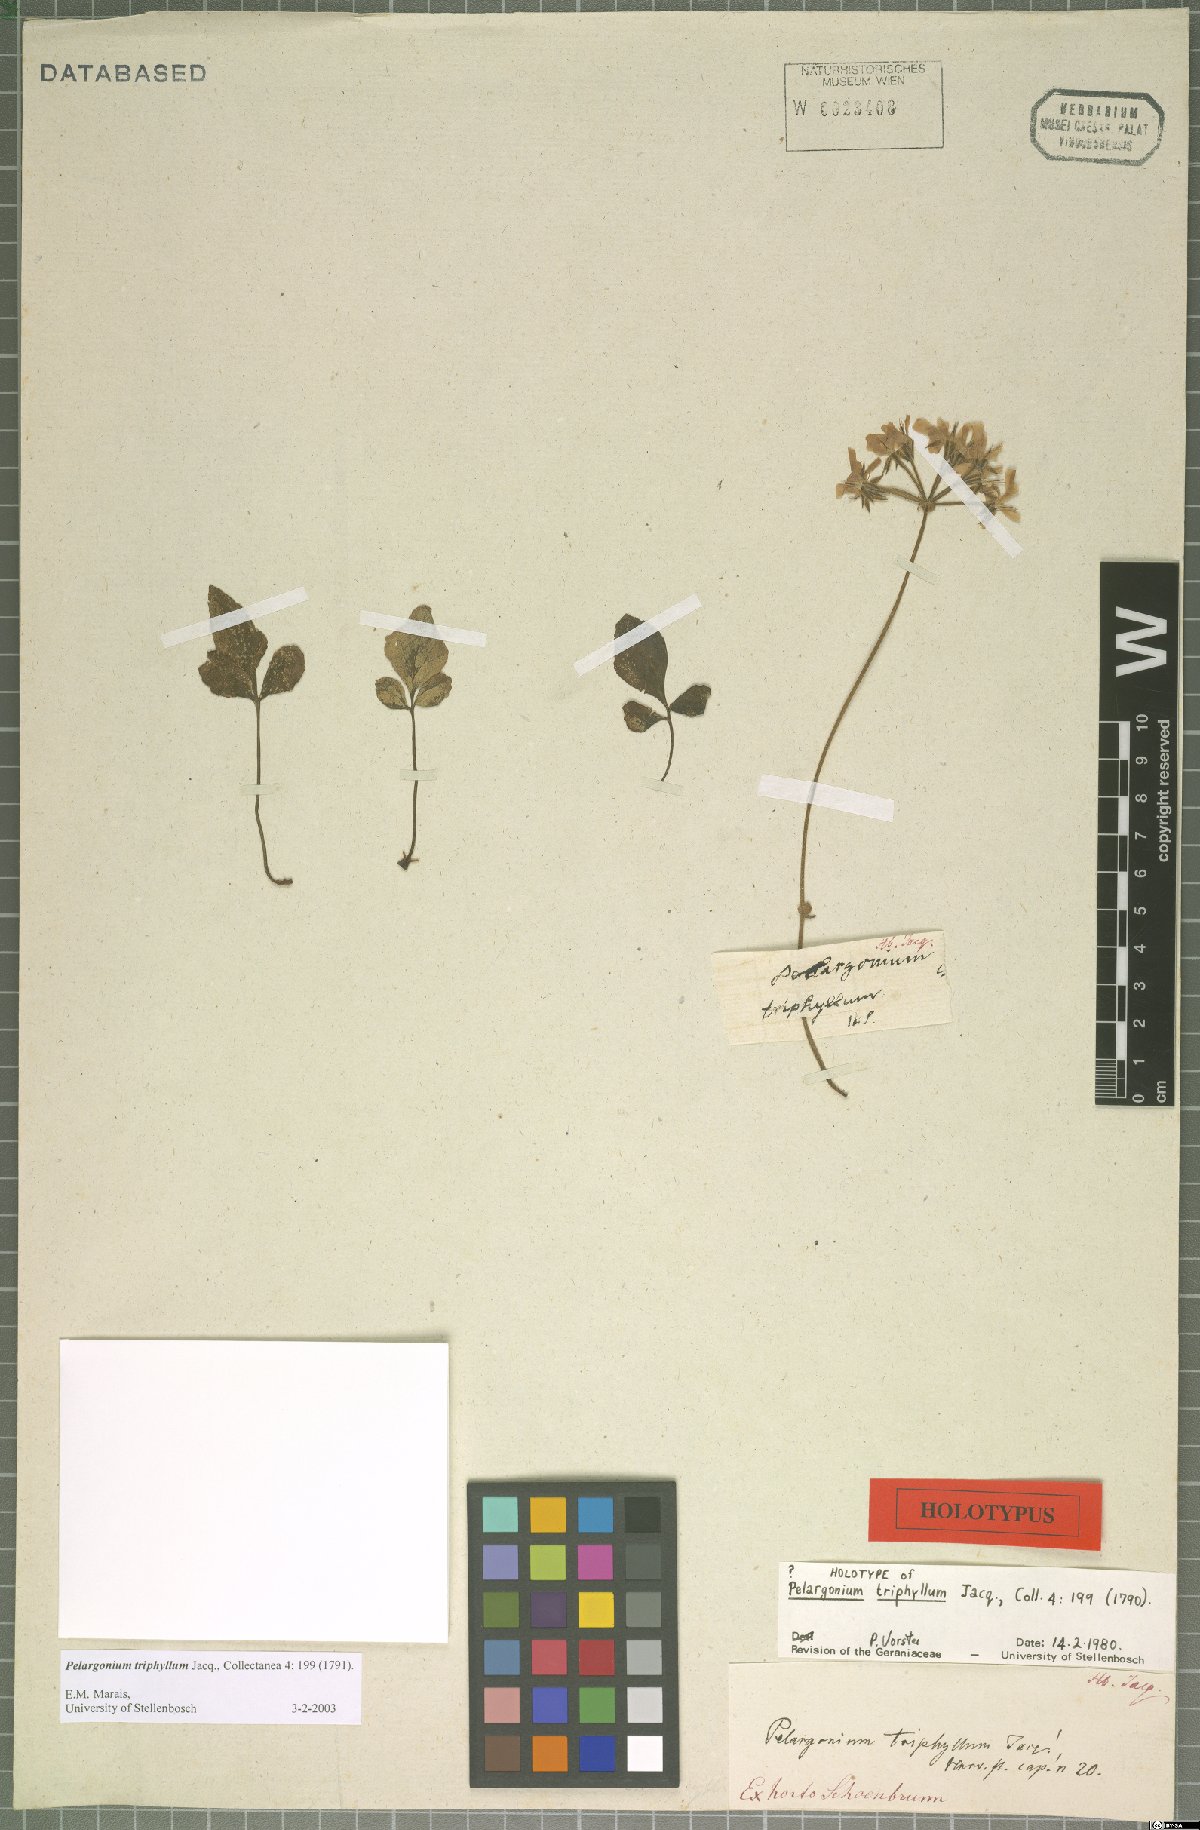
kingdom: Plantae
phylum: Tracheophyta
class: Magnoliopsida
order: Geraniales
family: Geraniaceae
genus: Pelargonium
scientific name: Pelargonium triphyllum
